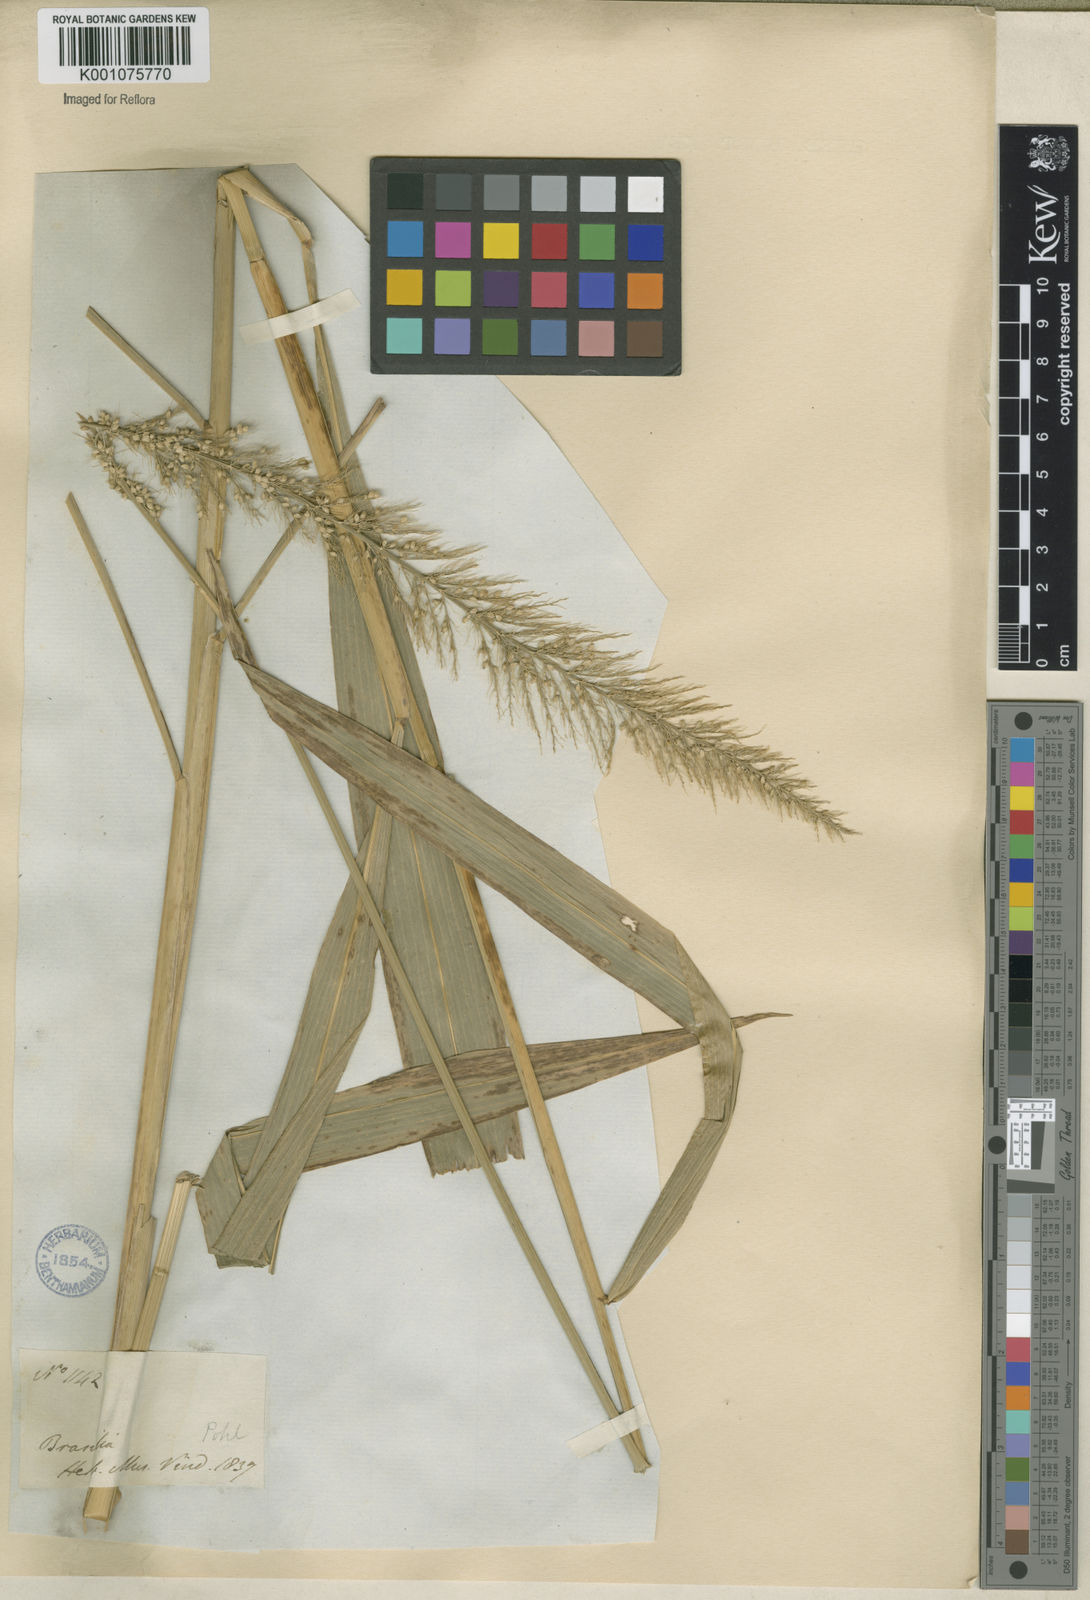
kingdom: Plantae
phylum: Tracheophyta
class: Liliopsida
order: Poales
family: Poaceae
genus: Setaria
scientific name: Setaria vulpiseta
